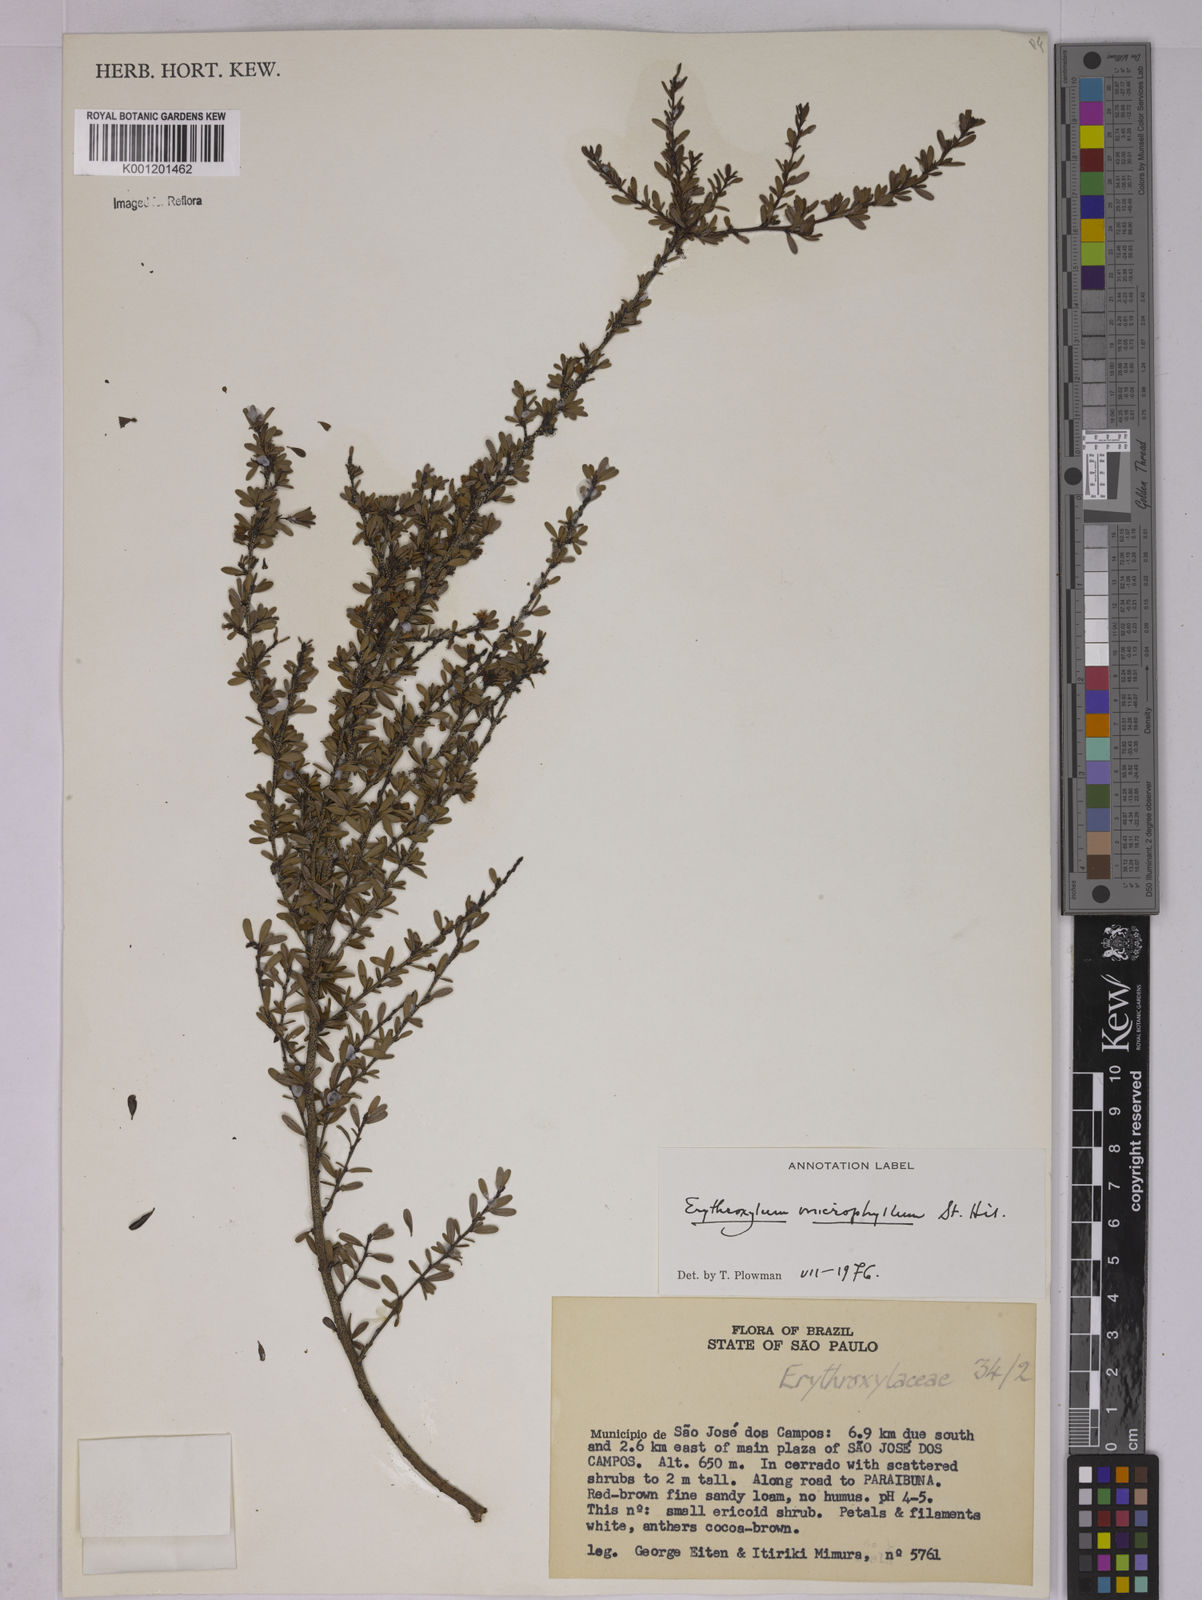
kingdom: Plantae
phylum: Tracheophyta
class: Magnoliopsida
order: Malpighiales
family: Erythroxylaceae
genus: Erythroxylum
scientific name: Erythroxylum microphyllum
